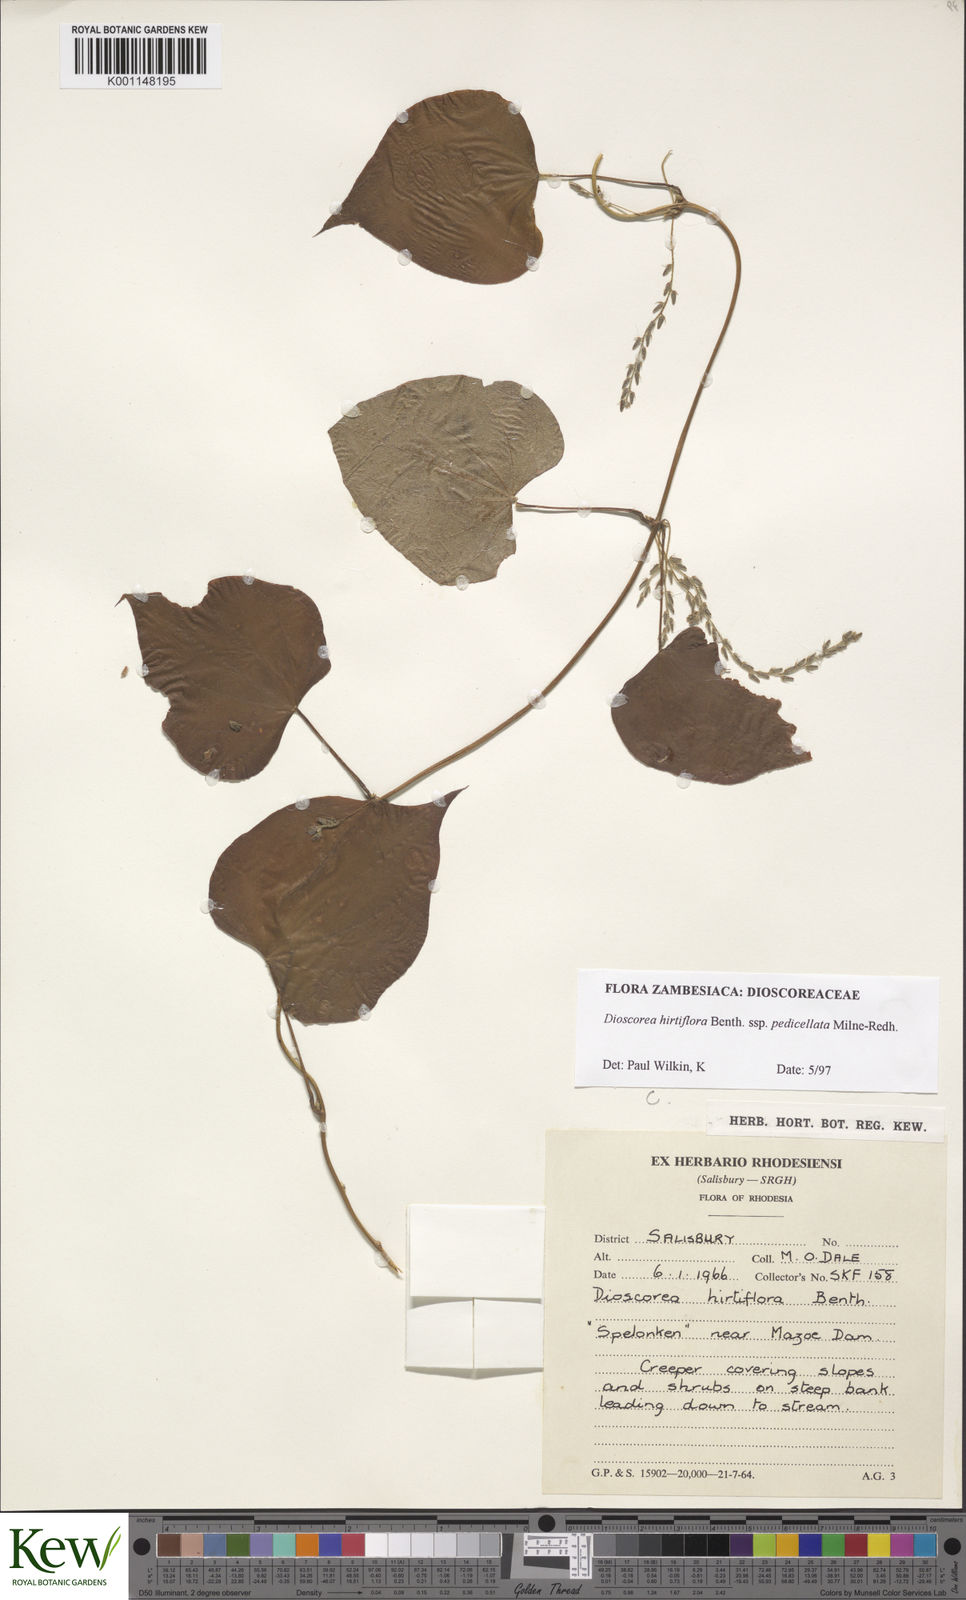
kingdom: Plantae
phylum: Tracheophyta
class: Liliopsida
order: Dioscoreales
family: Dioscoreaceae
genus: Dioscorea
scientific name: Dioscorea hirtiflora
